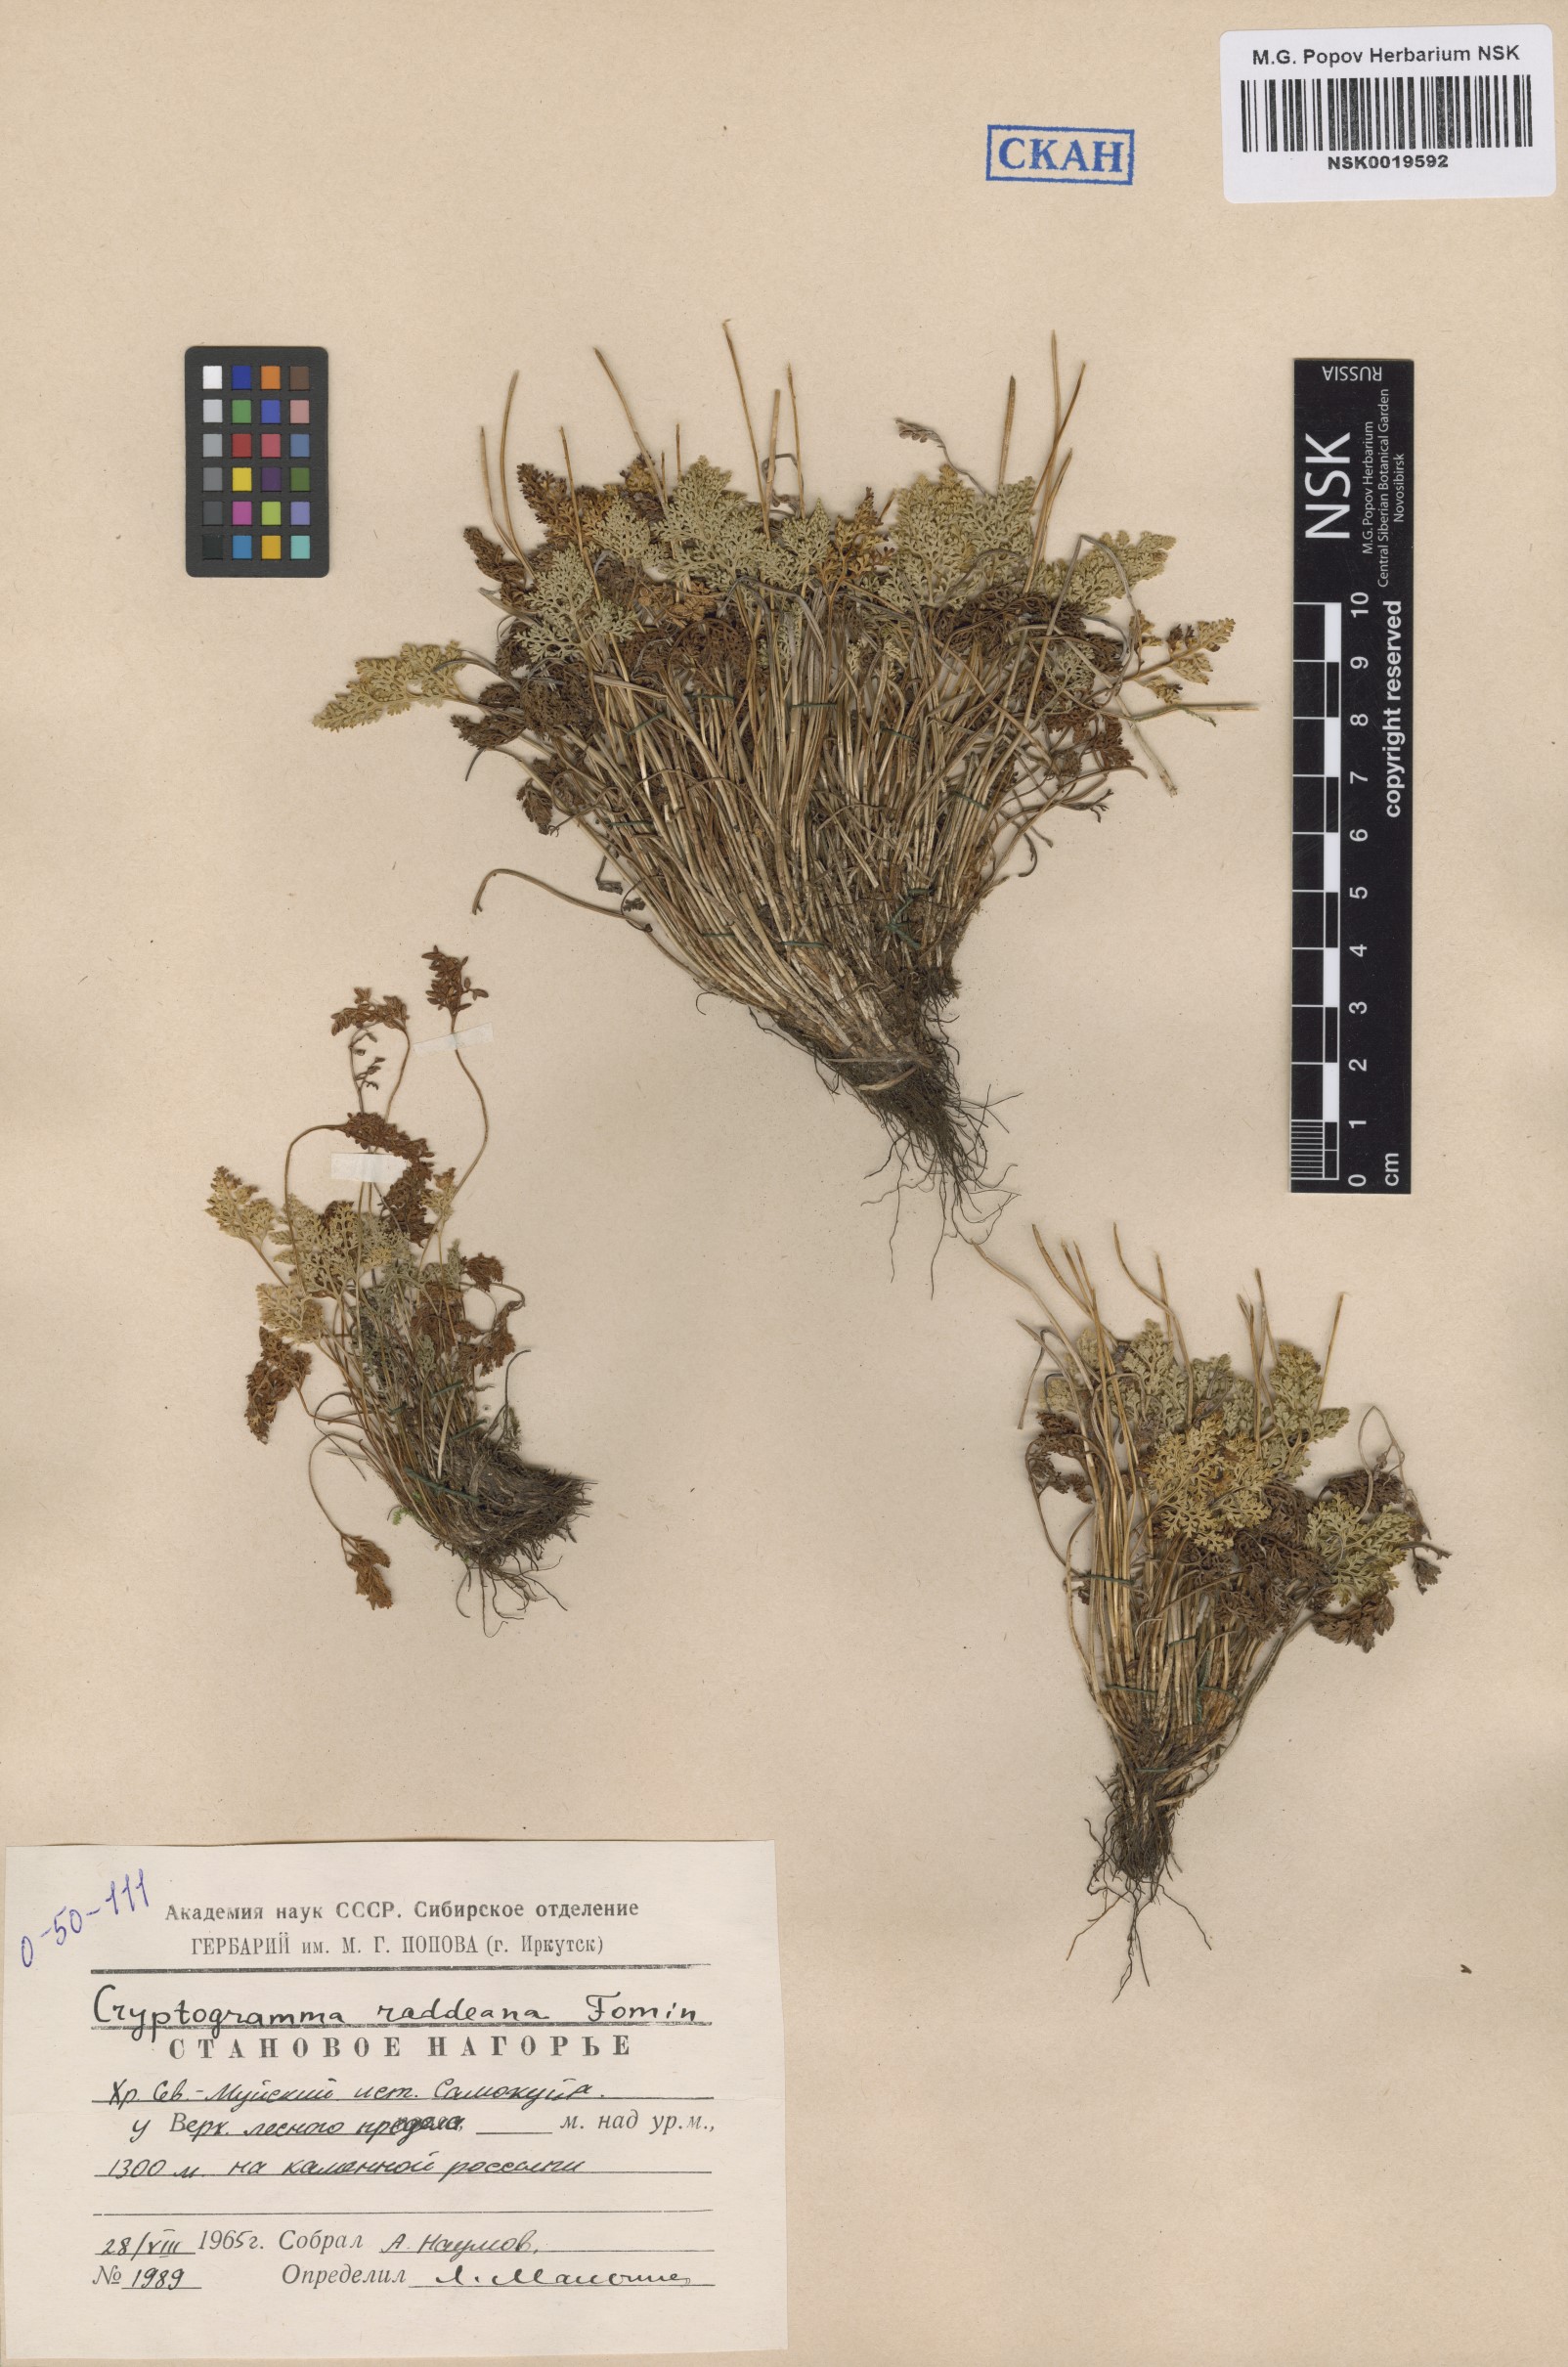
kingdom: Plantae
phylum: Tracheophyta
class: Polypodiopsida
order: Polypodiales
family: Pteridaceae
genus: Cryptogramma
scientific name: Cryptogramma brunoniana
